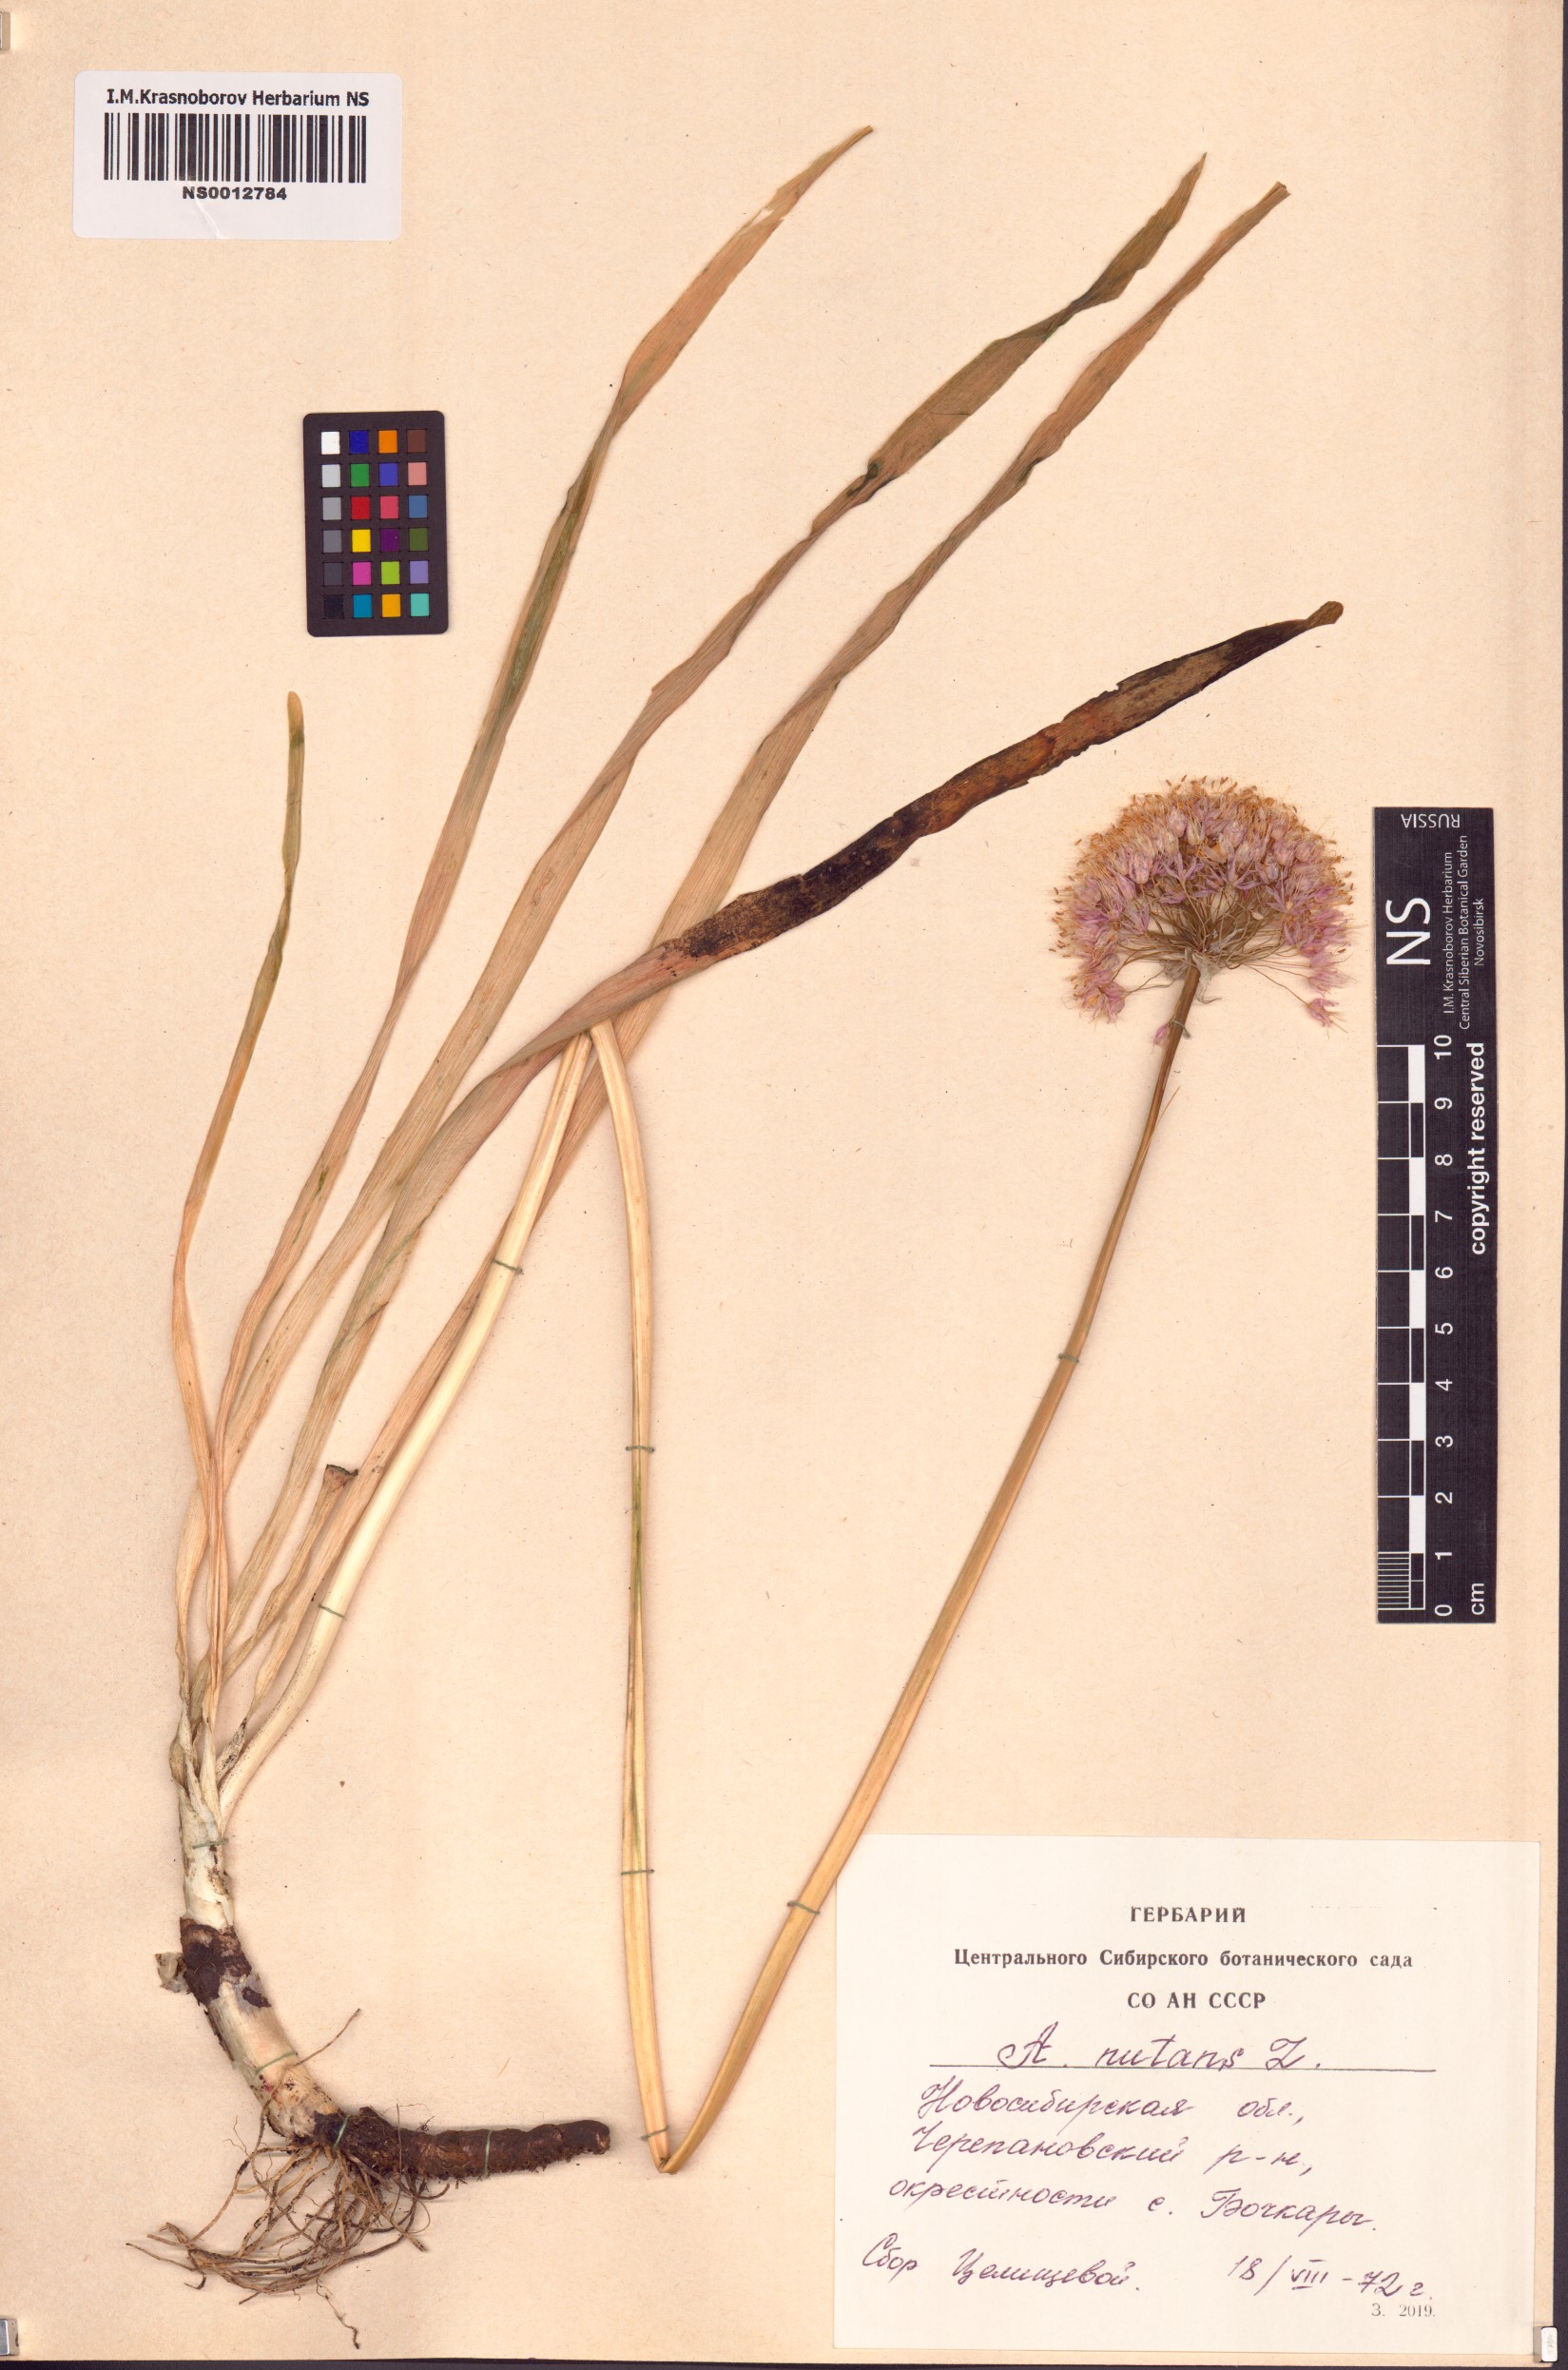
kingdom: Plantae
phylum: Tracheophyta
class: Liliopsida
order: Asparagales
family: Amaryllidaceae
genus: Allium
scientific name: Allium nutans
